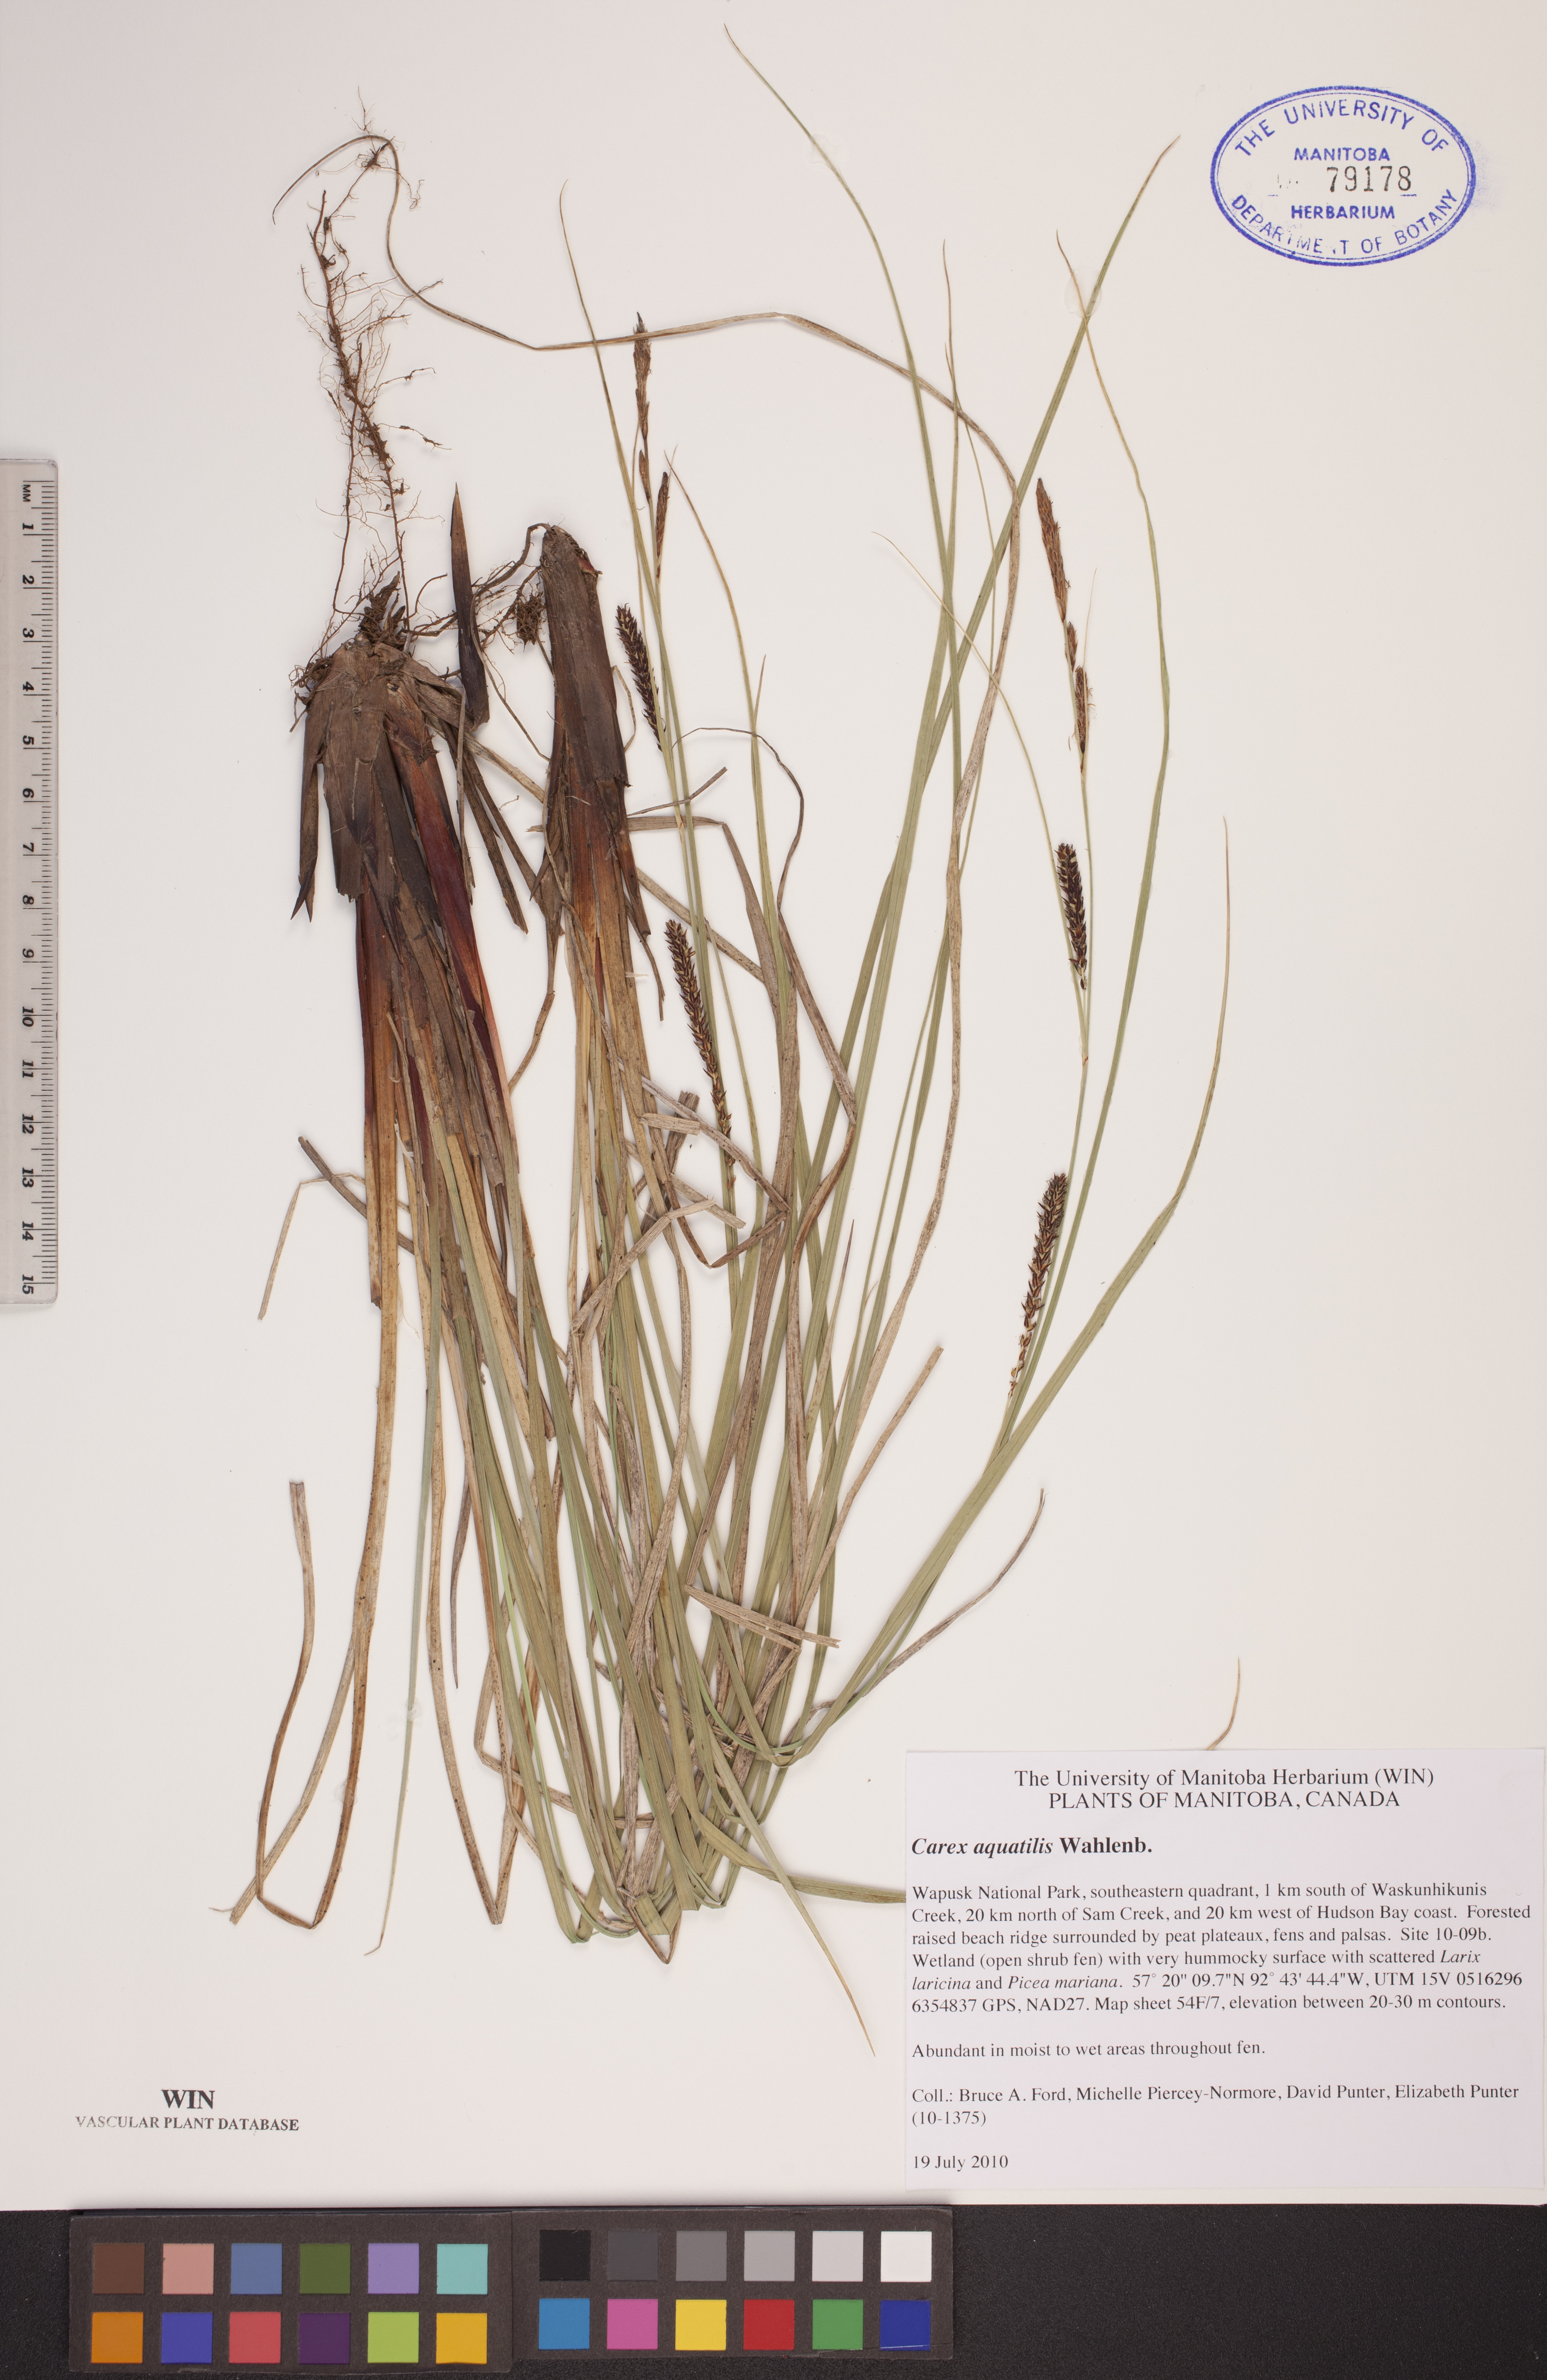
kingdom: Plantae
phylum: Tracheophyta
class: Liliopsida
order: Poales
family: Cyperaceae
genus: Carex
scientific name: Carex aquatilis
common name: Water sedge
